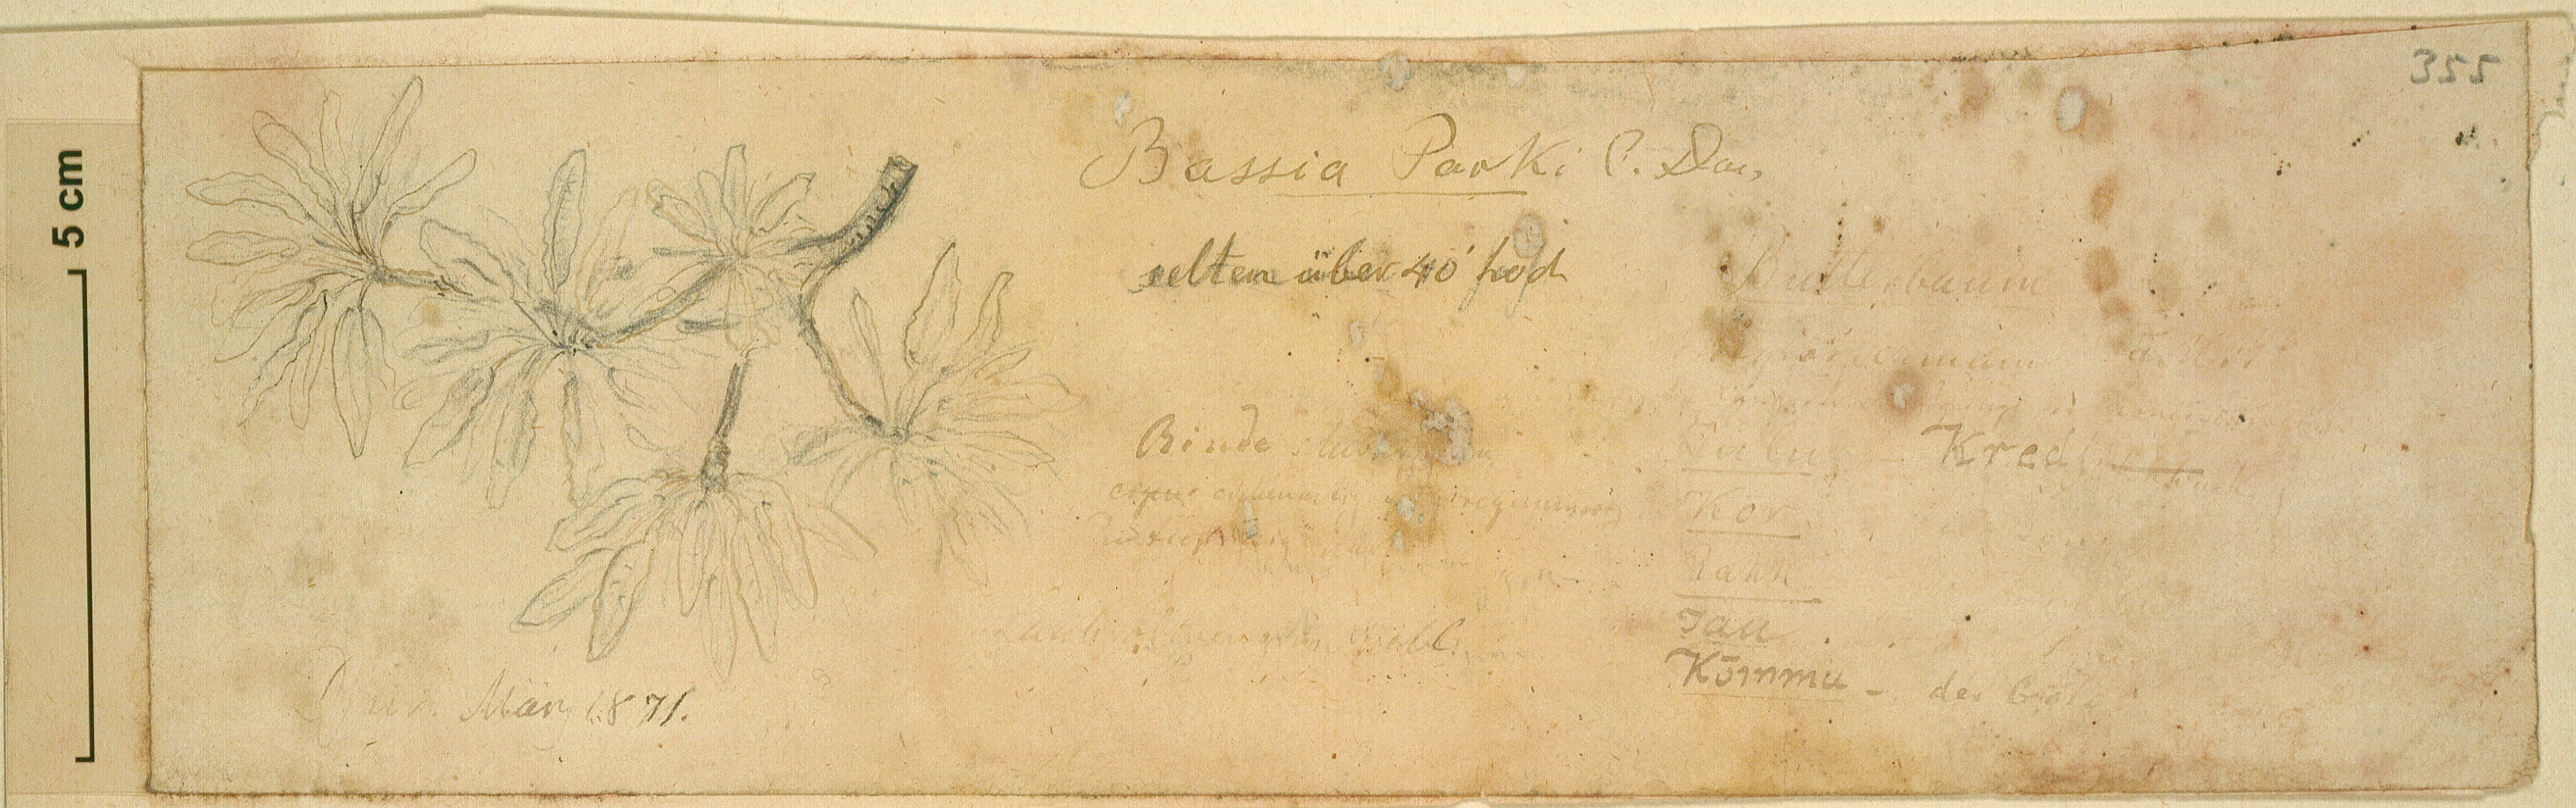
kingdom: Plantae
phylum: Tracheophyta
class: Magnoliopsida
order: Ericales
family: Sapotaceae
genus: Vitellaria
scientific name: Vitellaria paradoxa
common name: Shea butter tree
